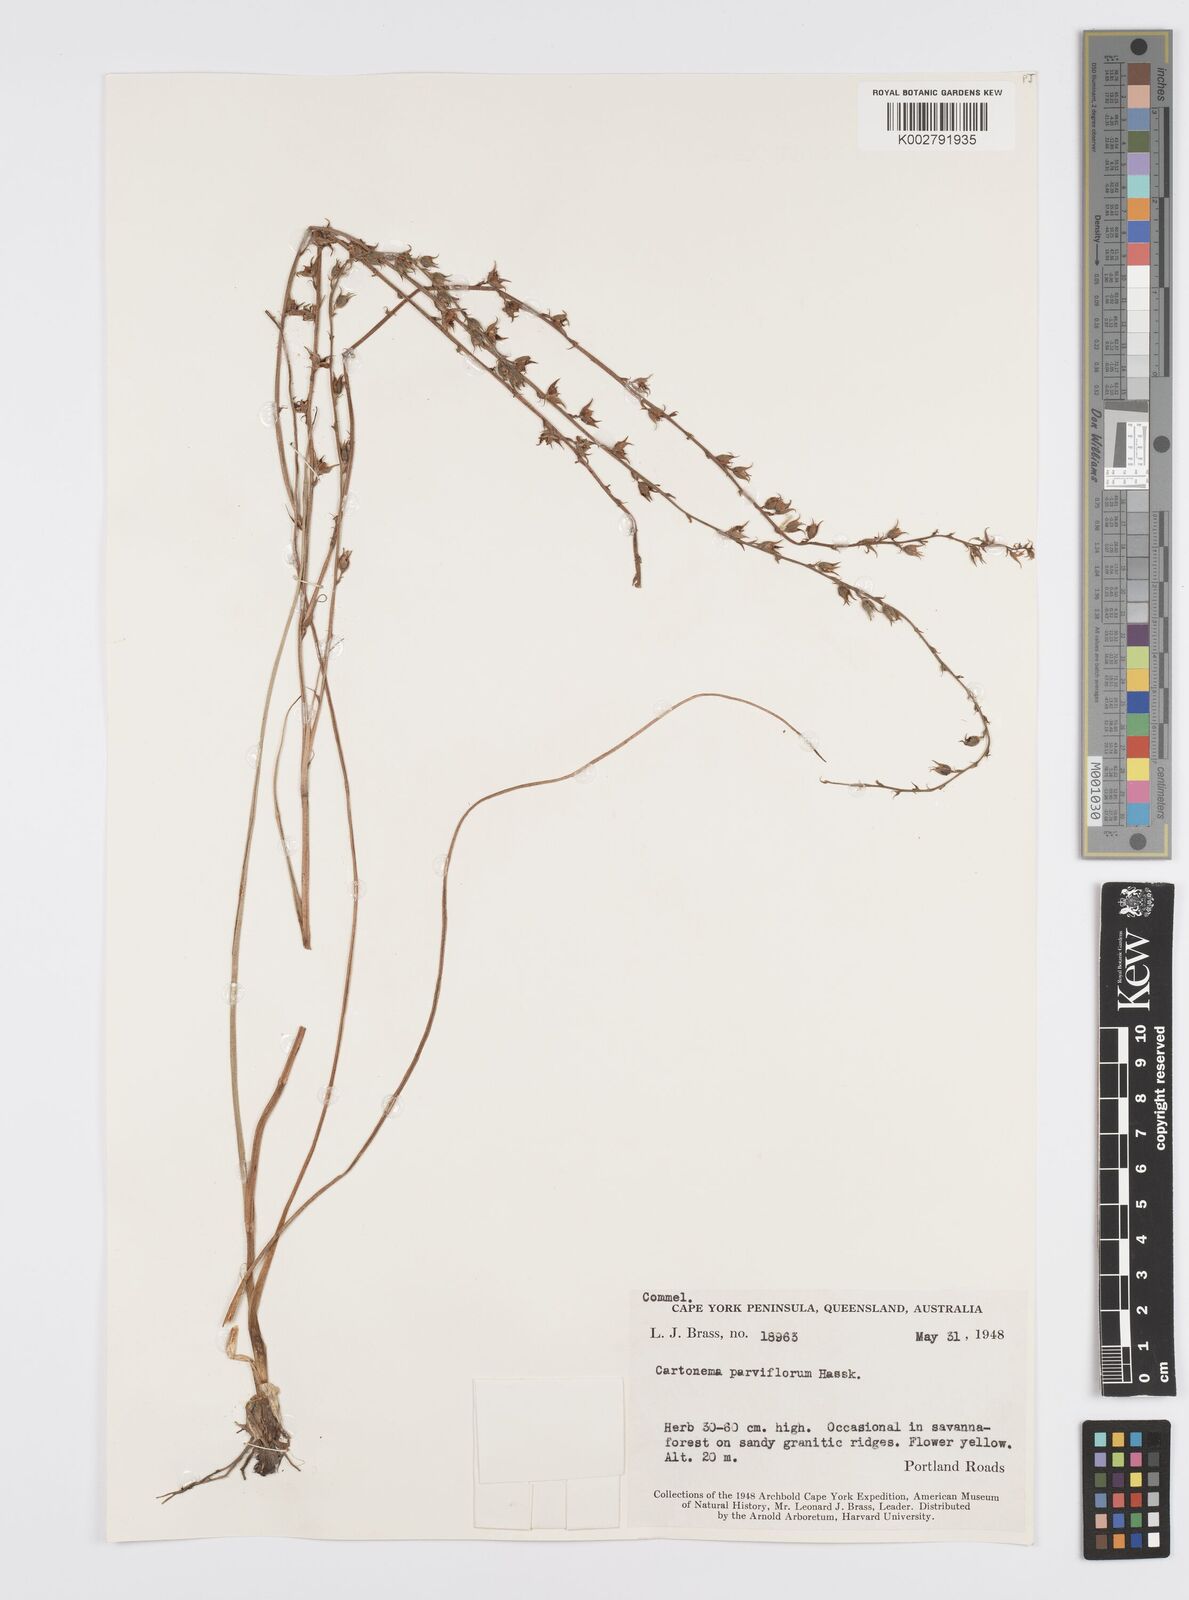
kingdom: Plantae
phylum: Tracheophyta
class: Liliopsida
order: Commelinales
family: Commelinaceae
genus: Cartonema
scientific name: Cartonema parviflorum
